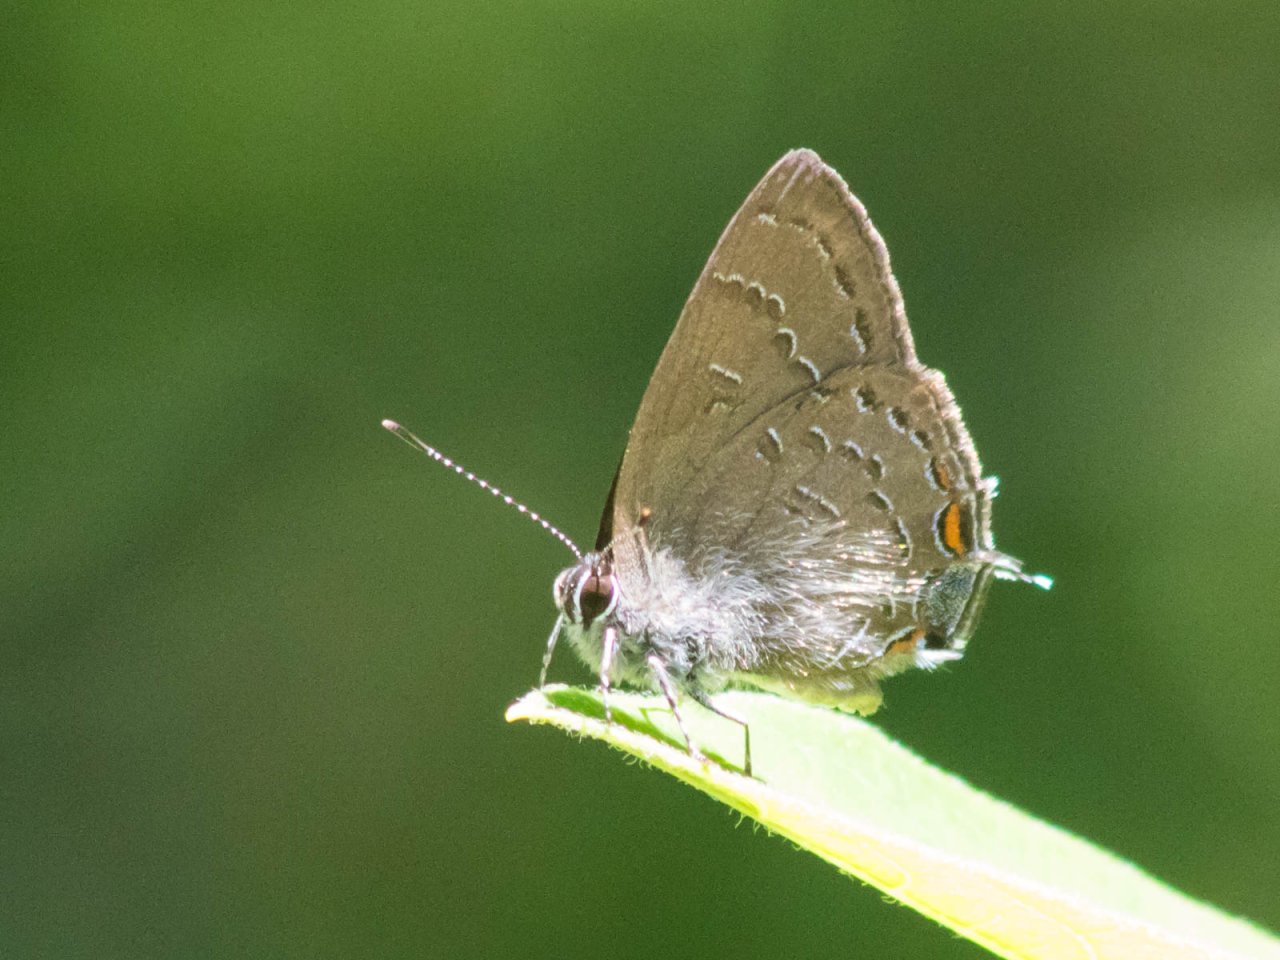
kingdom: Animalia
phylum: Arthropoda
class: Insecta
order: Lepidoptera
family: Lycaenidae
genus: Satyrium
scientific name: Satyrium calanus
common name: Banded Hairstreak
